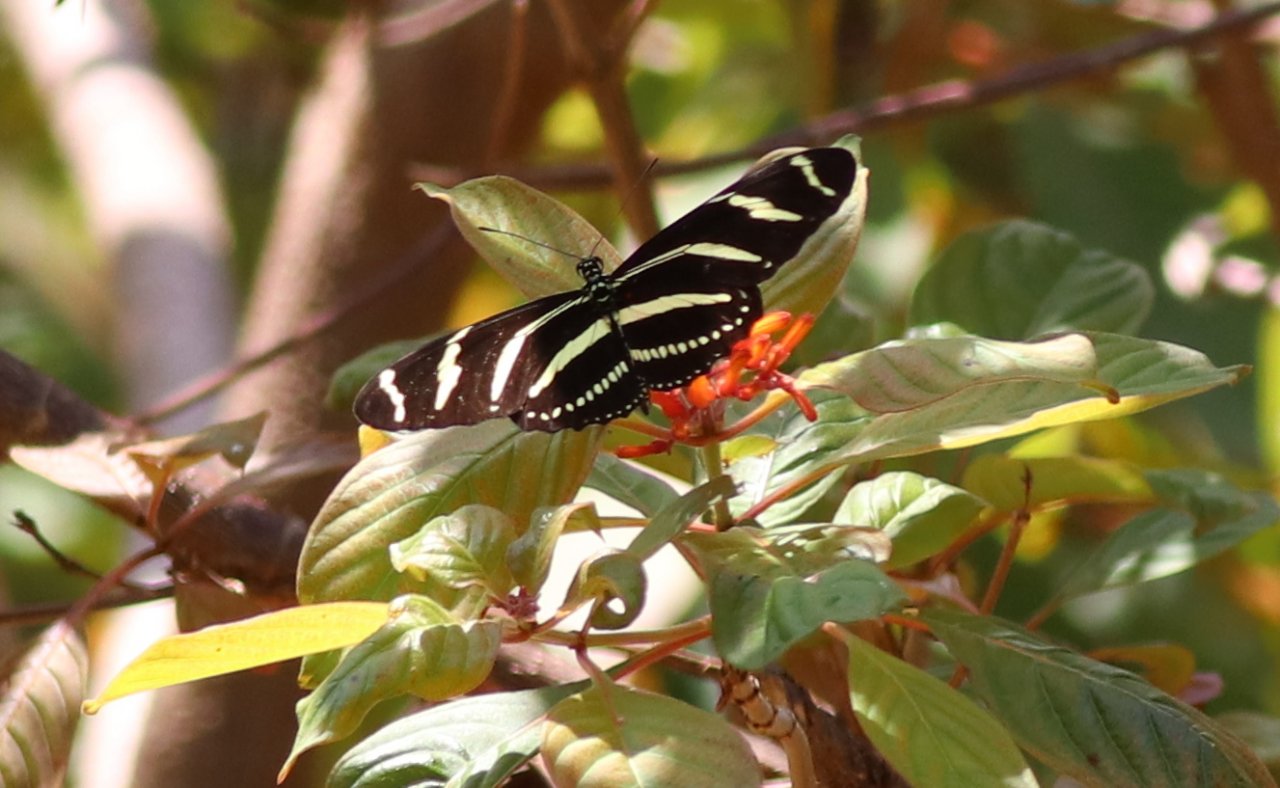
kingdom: Animalia
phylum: Arthropoda
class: Insecta
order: Lepidoptera
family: Nymphalidae
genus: Heliconius
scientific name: Heliconius charithonia
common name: Zebra Longwing
